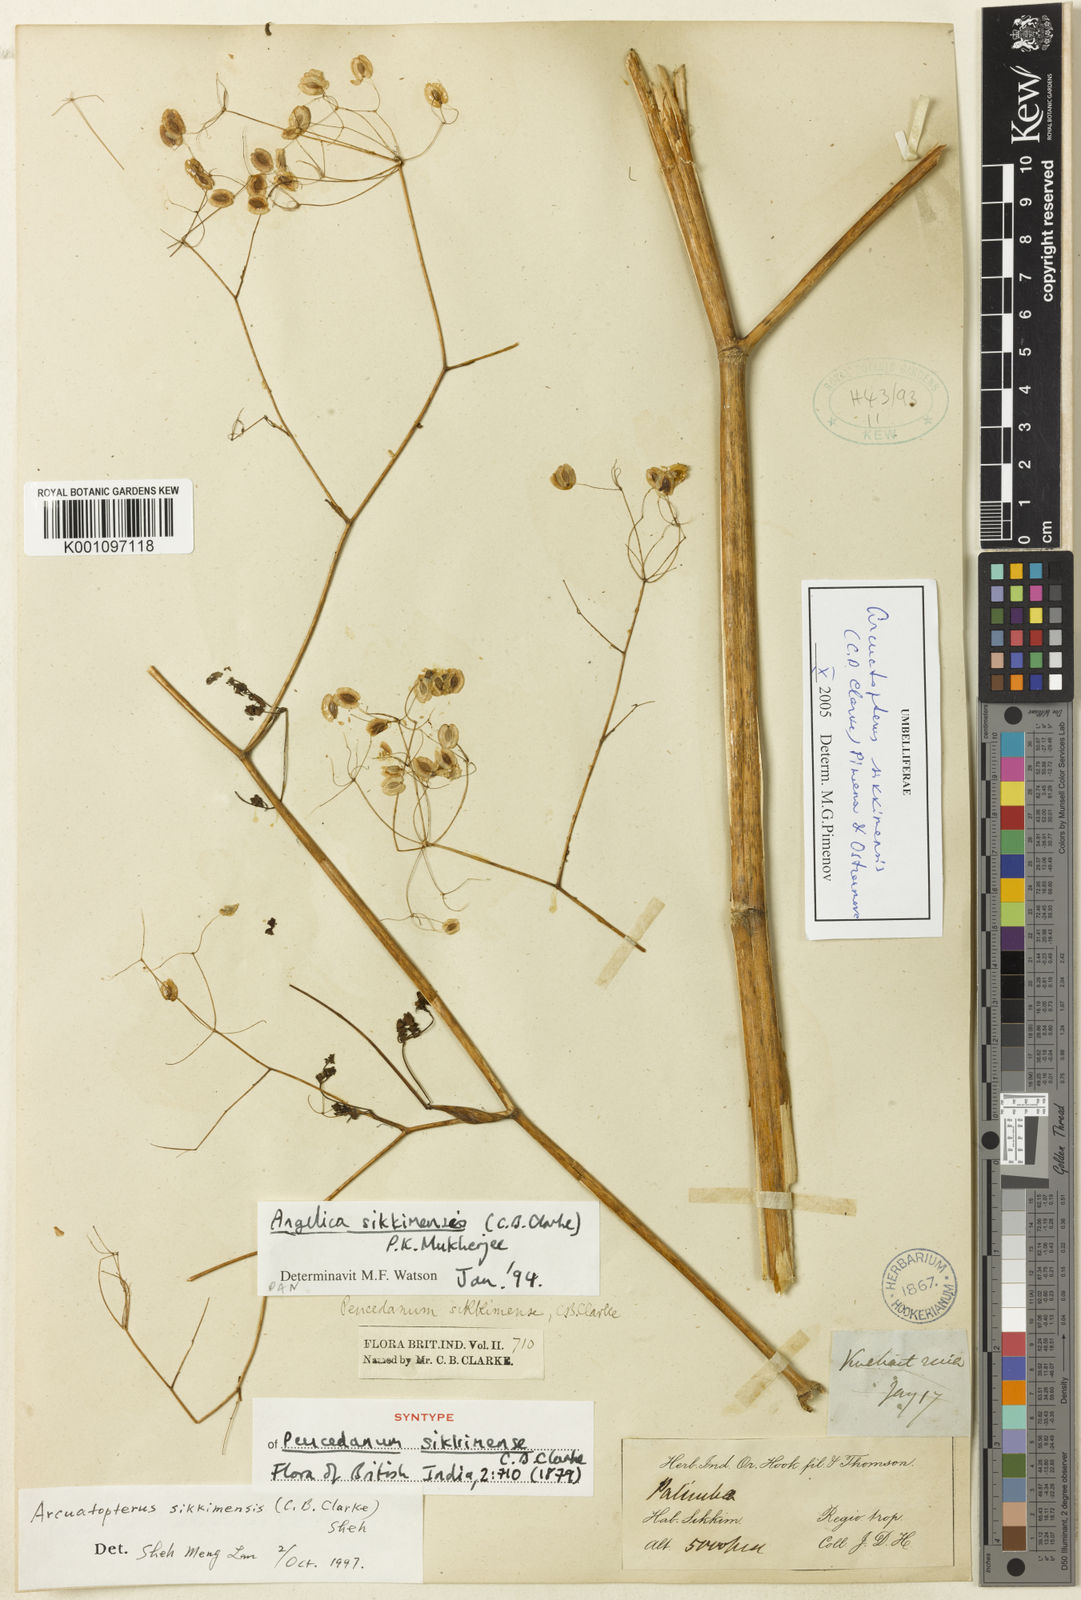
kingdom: Plantae
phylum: Tracheophyta
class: Magnoliopsida
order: Apiales
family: Apiaceae
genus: Arcuatopterus
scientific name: Arcuatopterus sikkimensis
